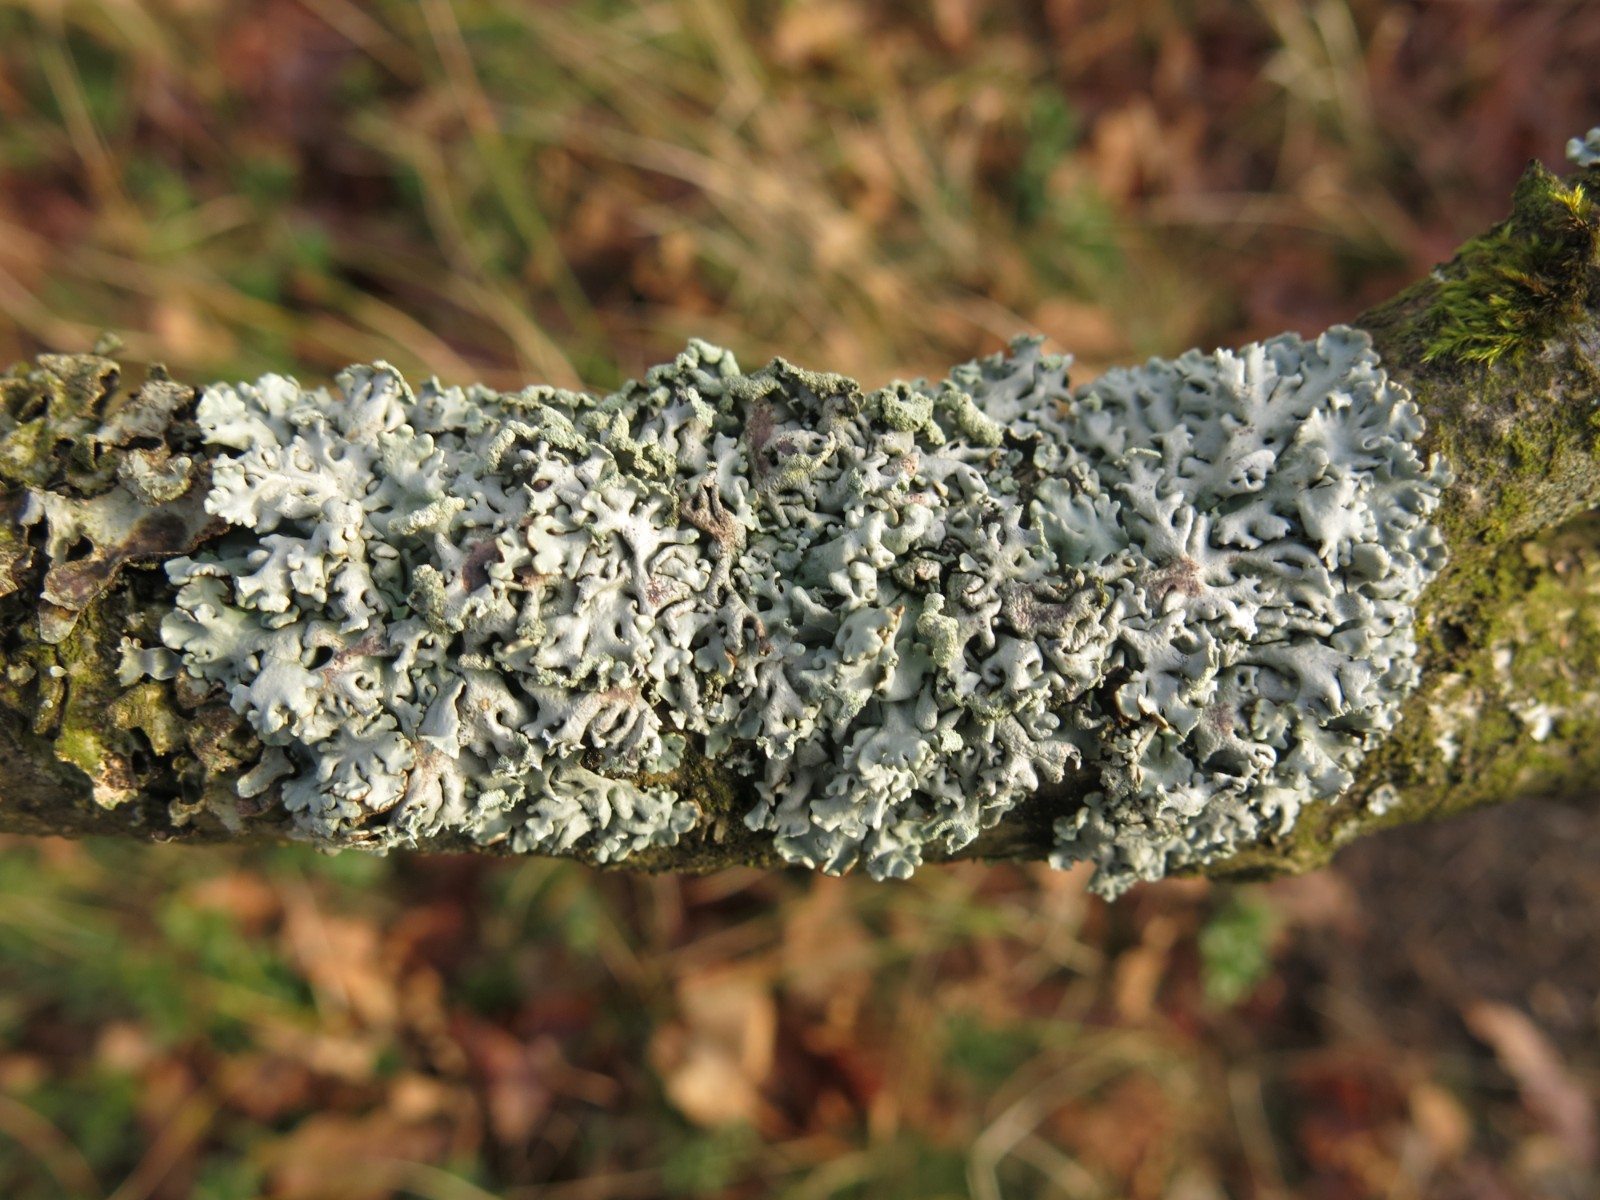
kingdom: Fungi
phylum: Ascomycota
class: Lecanoromycetes
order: Lecanorales
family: Parmeliaceae
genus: Hypogymnia
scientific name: Hypogymnia physodes
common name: almindelig kvistlav
